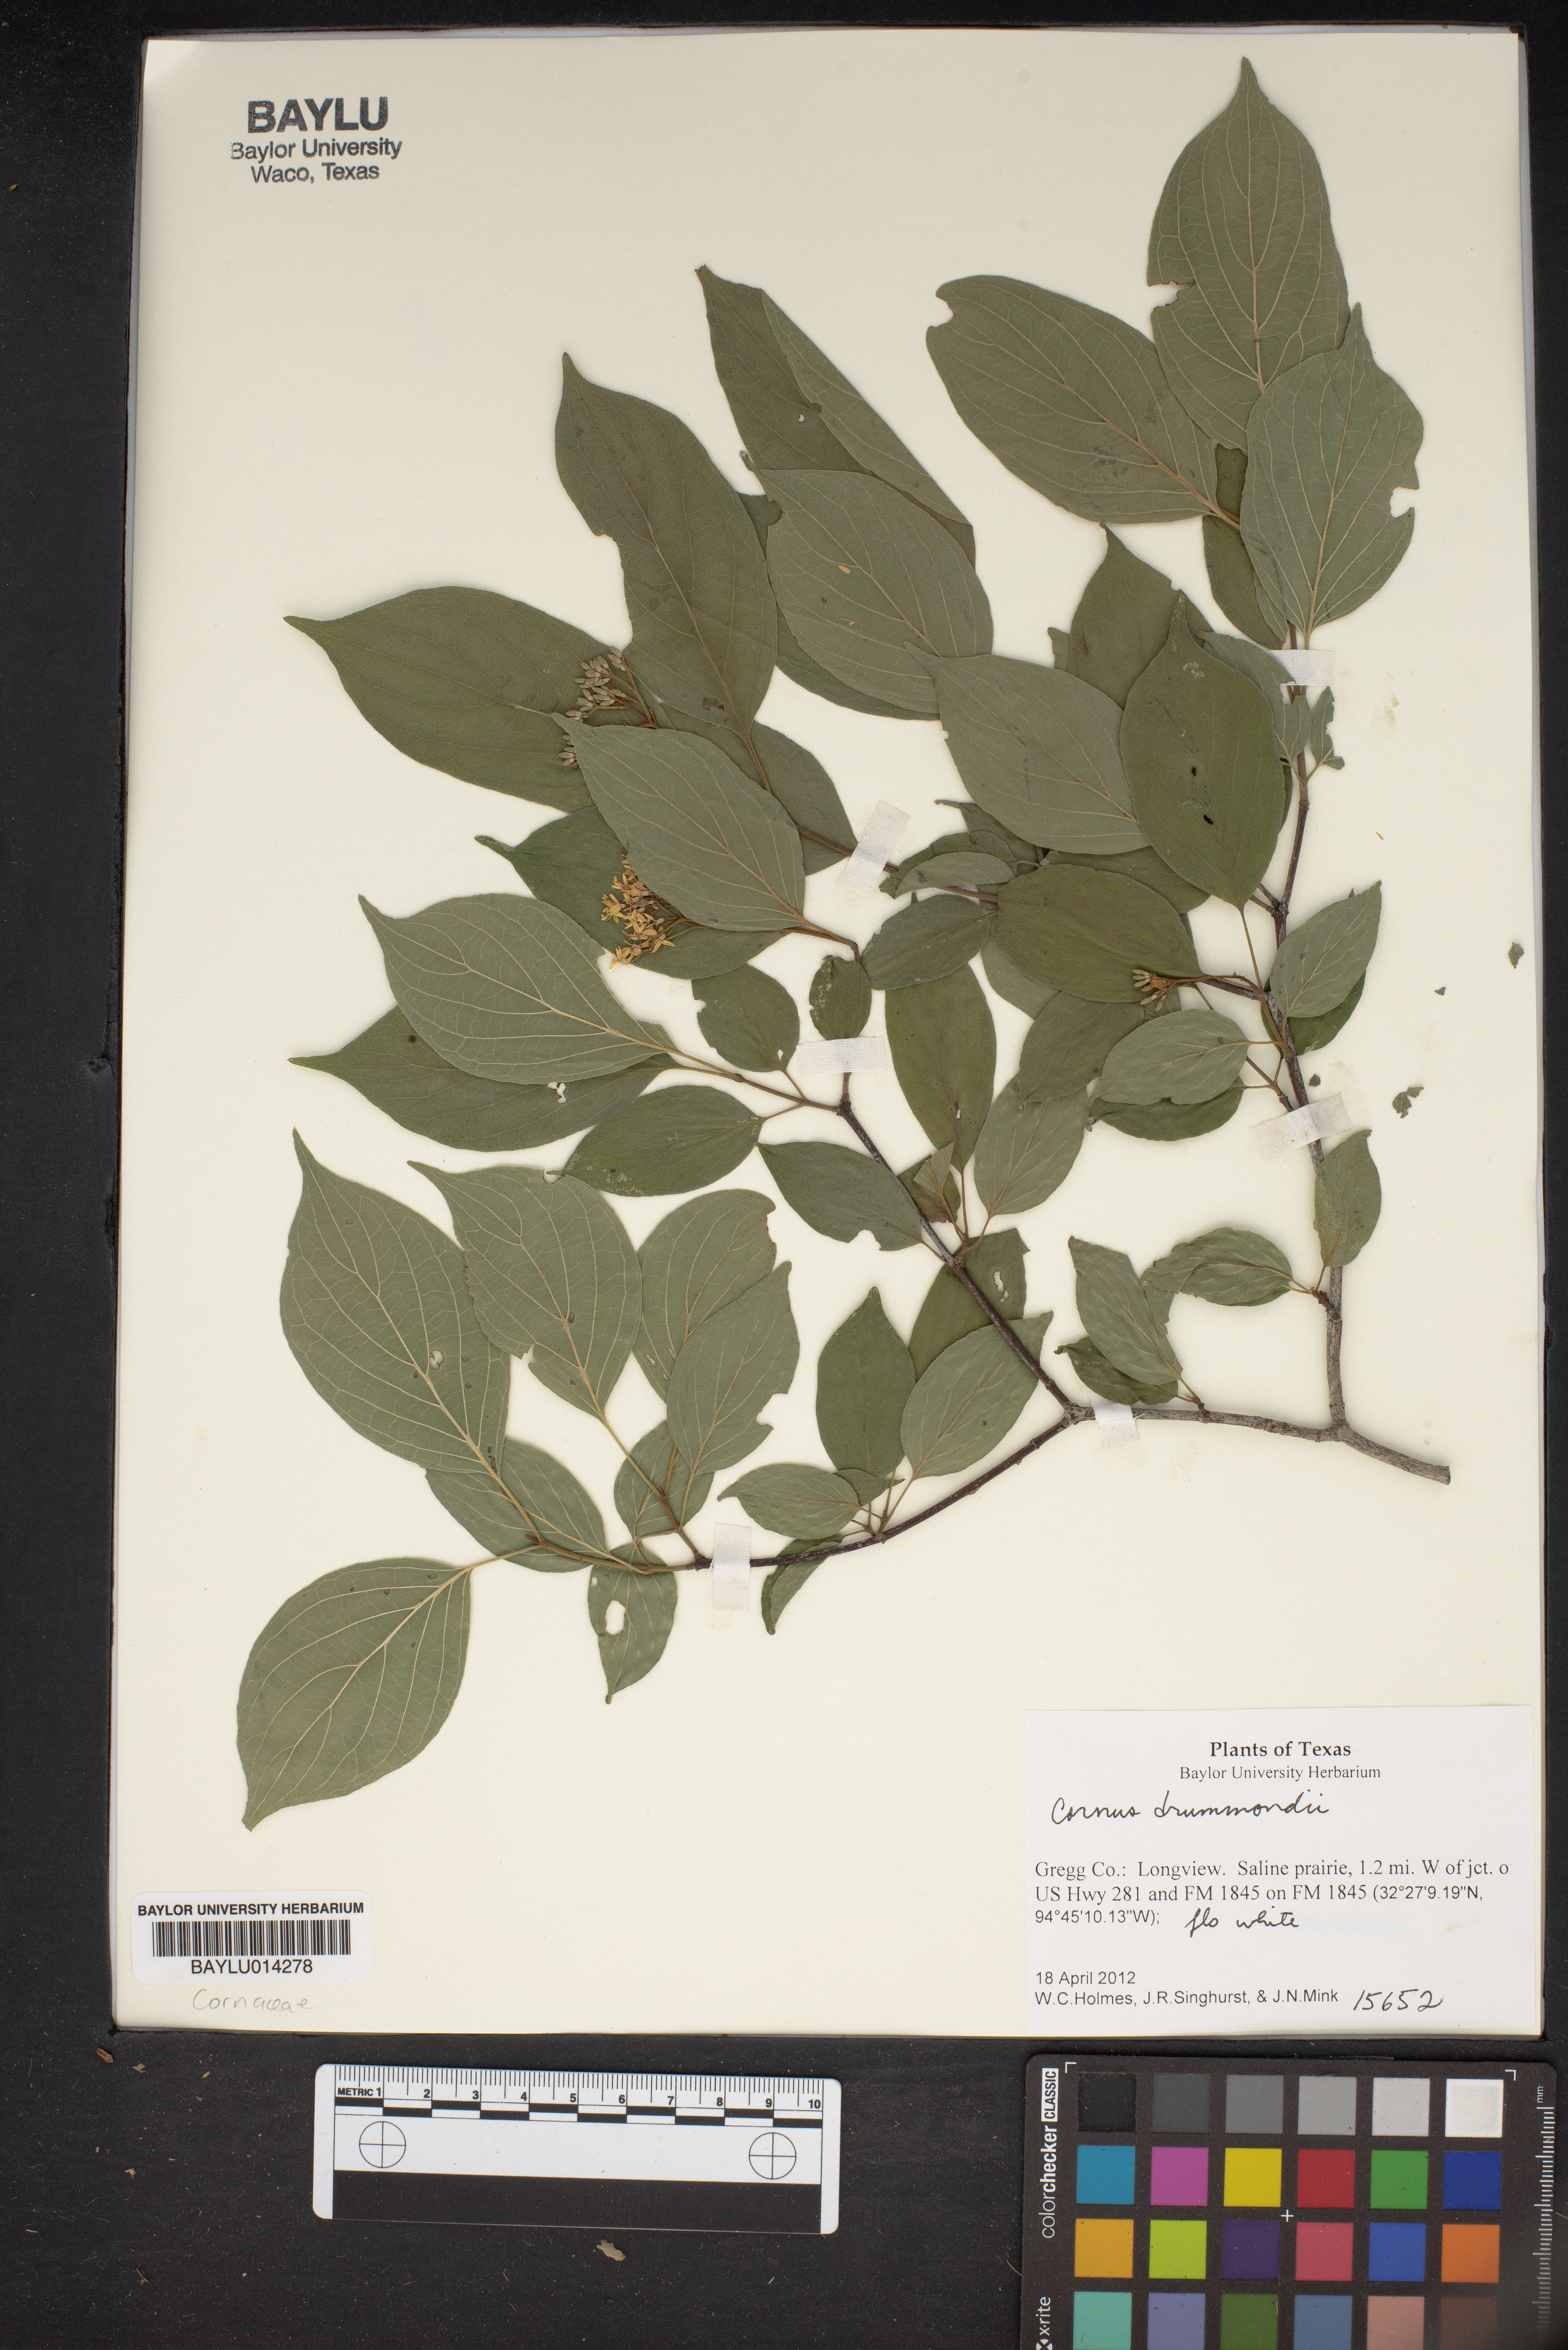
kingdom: Plantae
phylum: Tracheophyta
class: Magnoliopsida
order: Cornales
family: Cornaceae
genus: Cornus
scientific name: Cornus drummondii
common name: Rough-leaf dogwood
